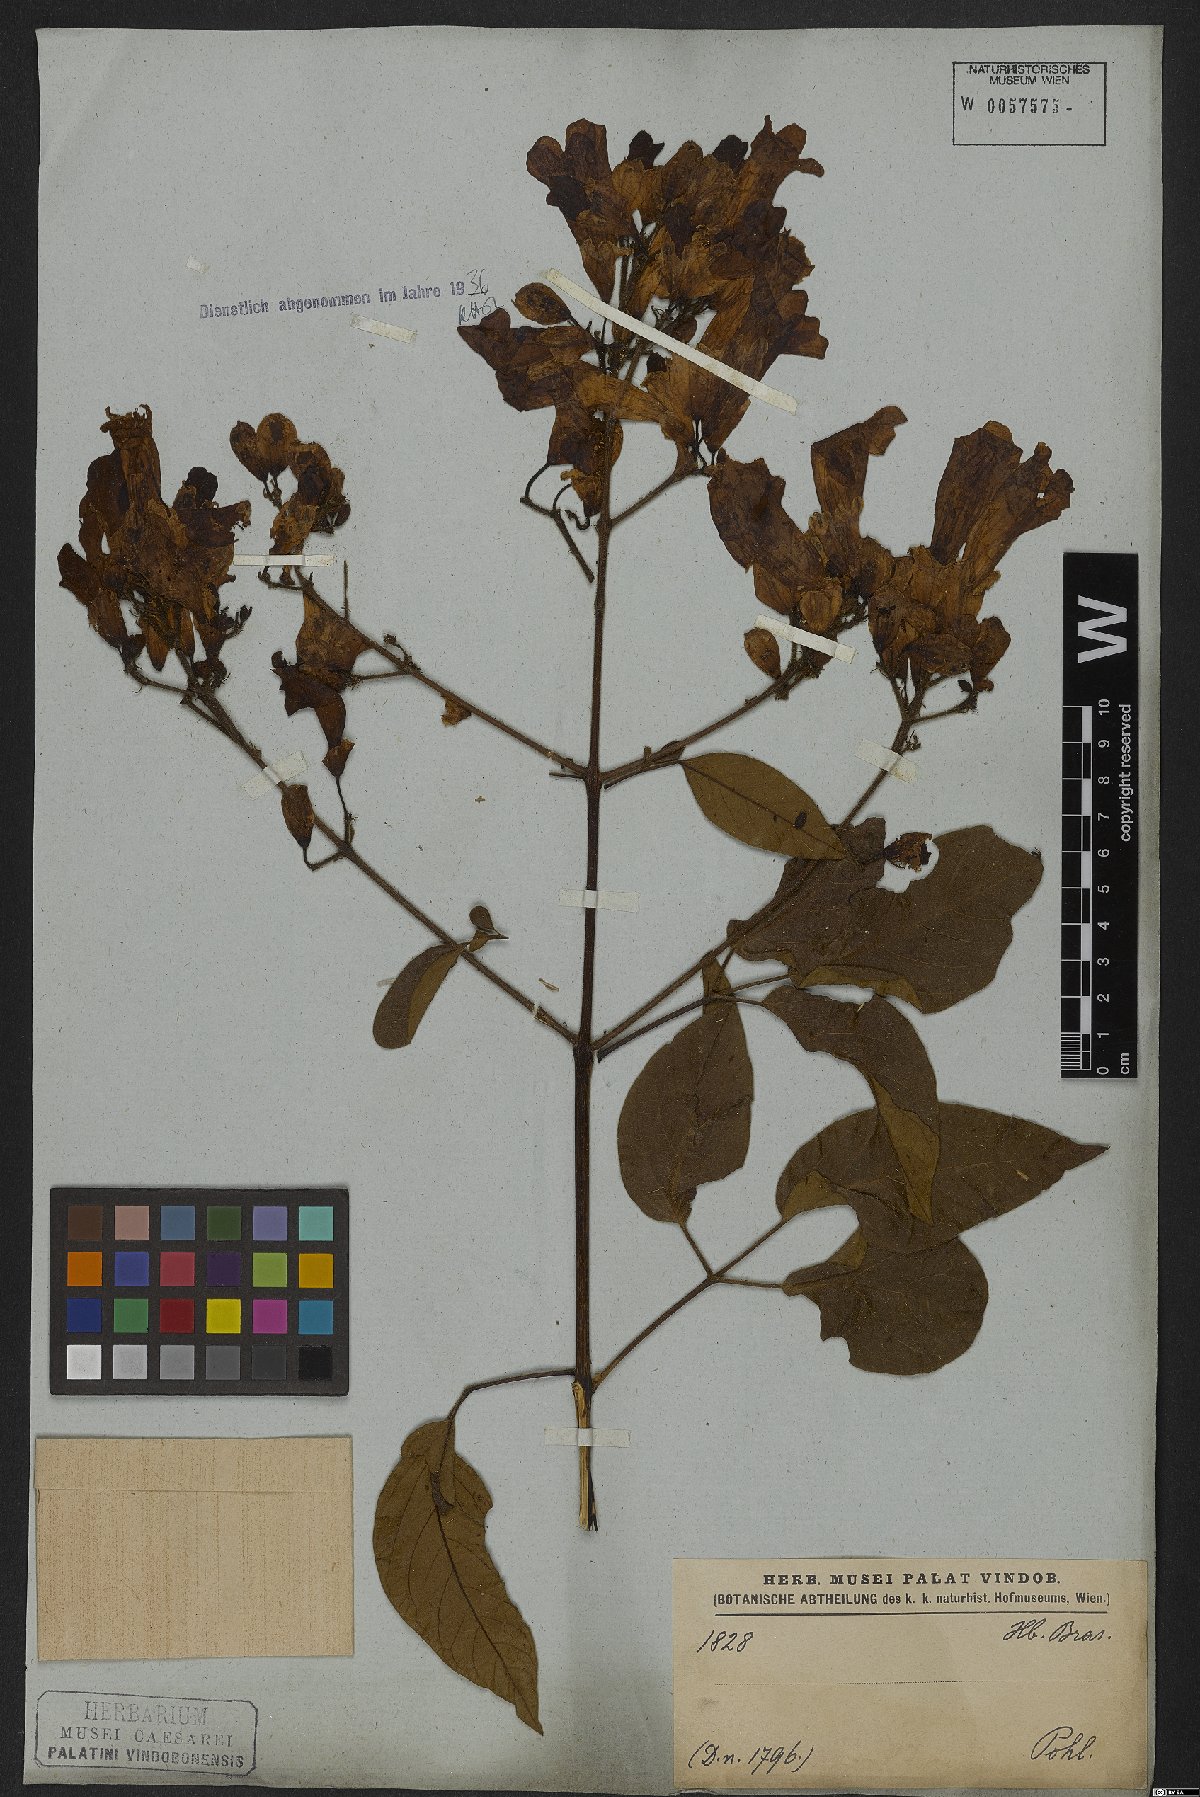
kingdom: Plantae
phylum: Tracheophyta
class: Magnoliopsida
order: Lamiales
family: Bignoniaceae
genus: Cuspidaria
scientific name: Cuspidaria sceptrum
